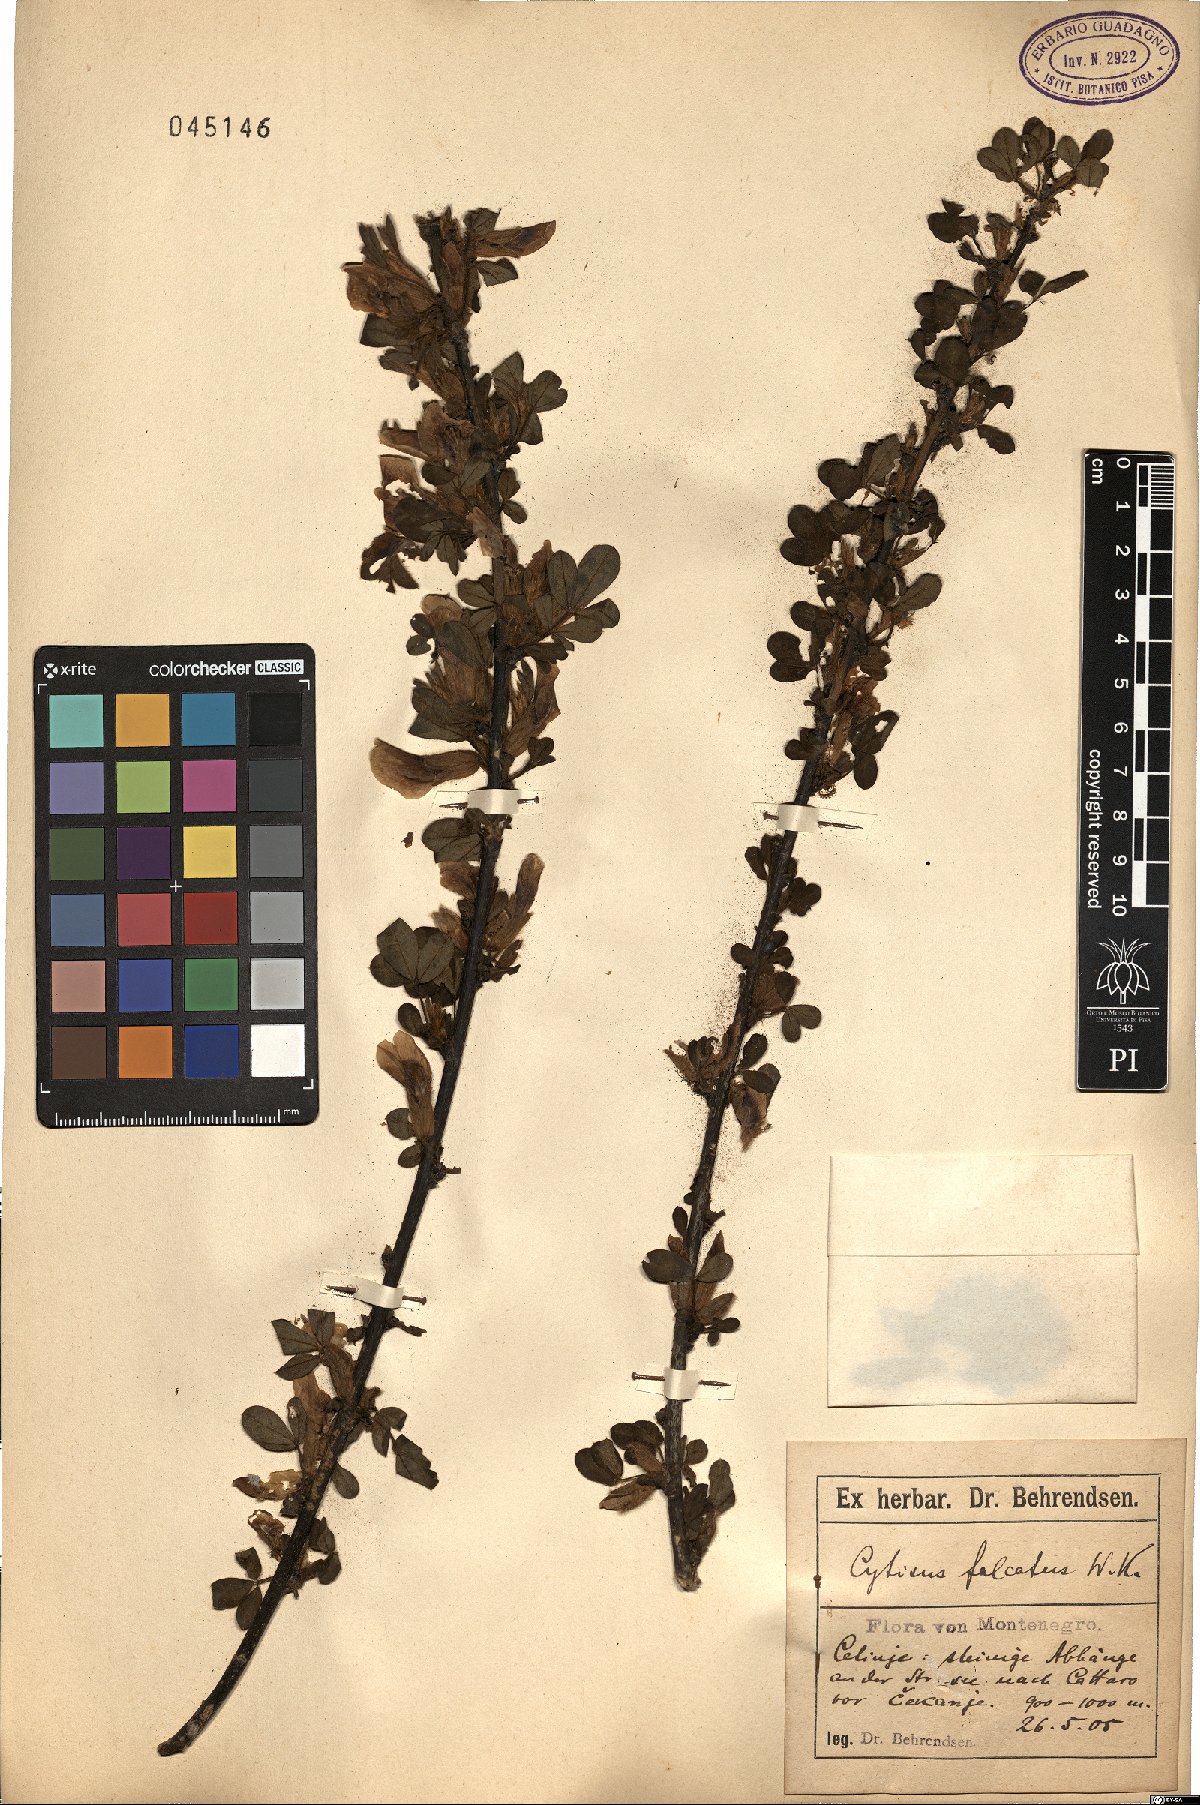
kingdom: Plantae
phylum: Tracheophyta
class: Magnoliopsida
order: Fabales
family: Fabaceae
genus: Chamaecytisus
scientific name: Chamaecytisus hirsutus
